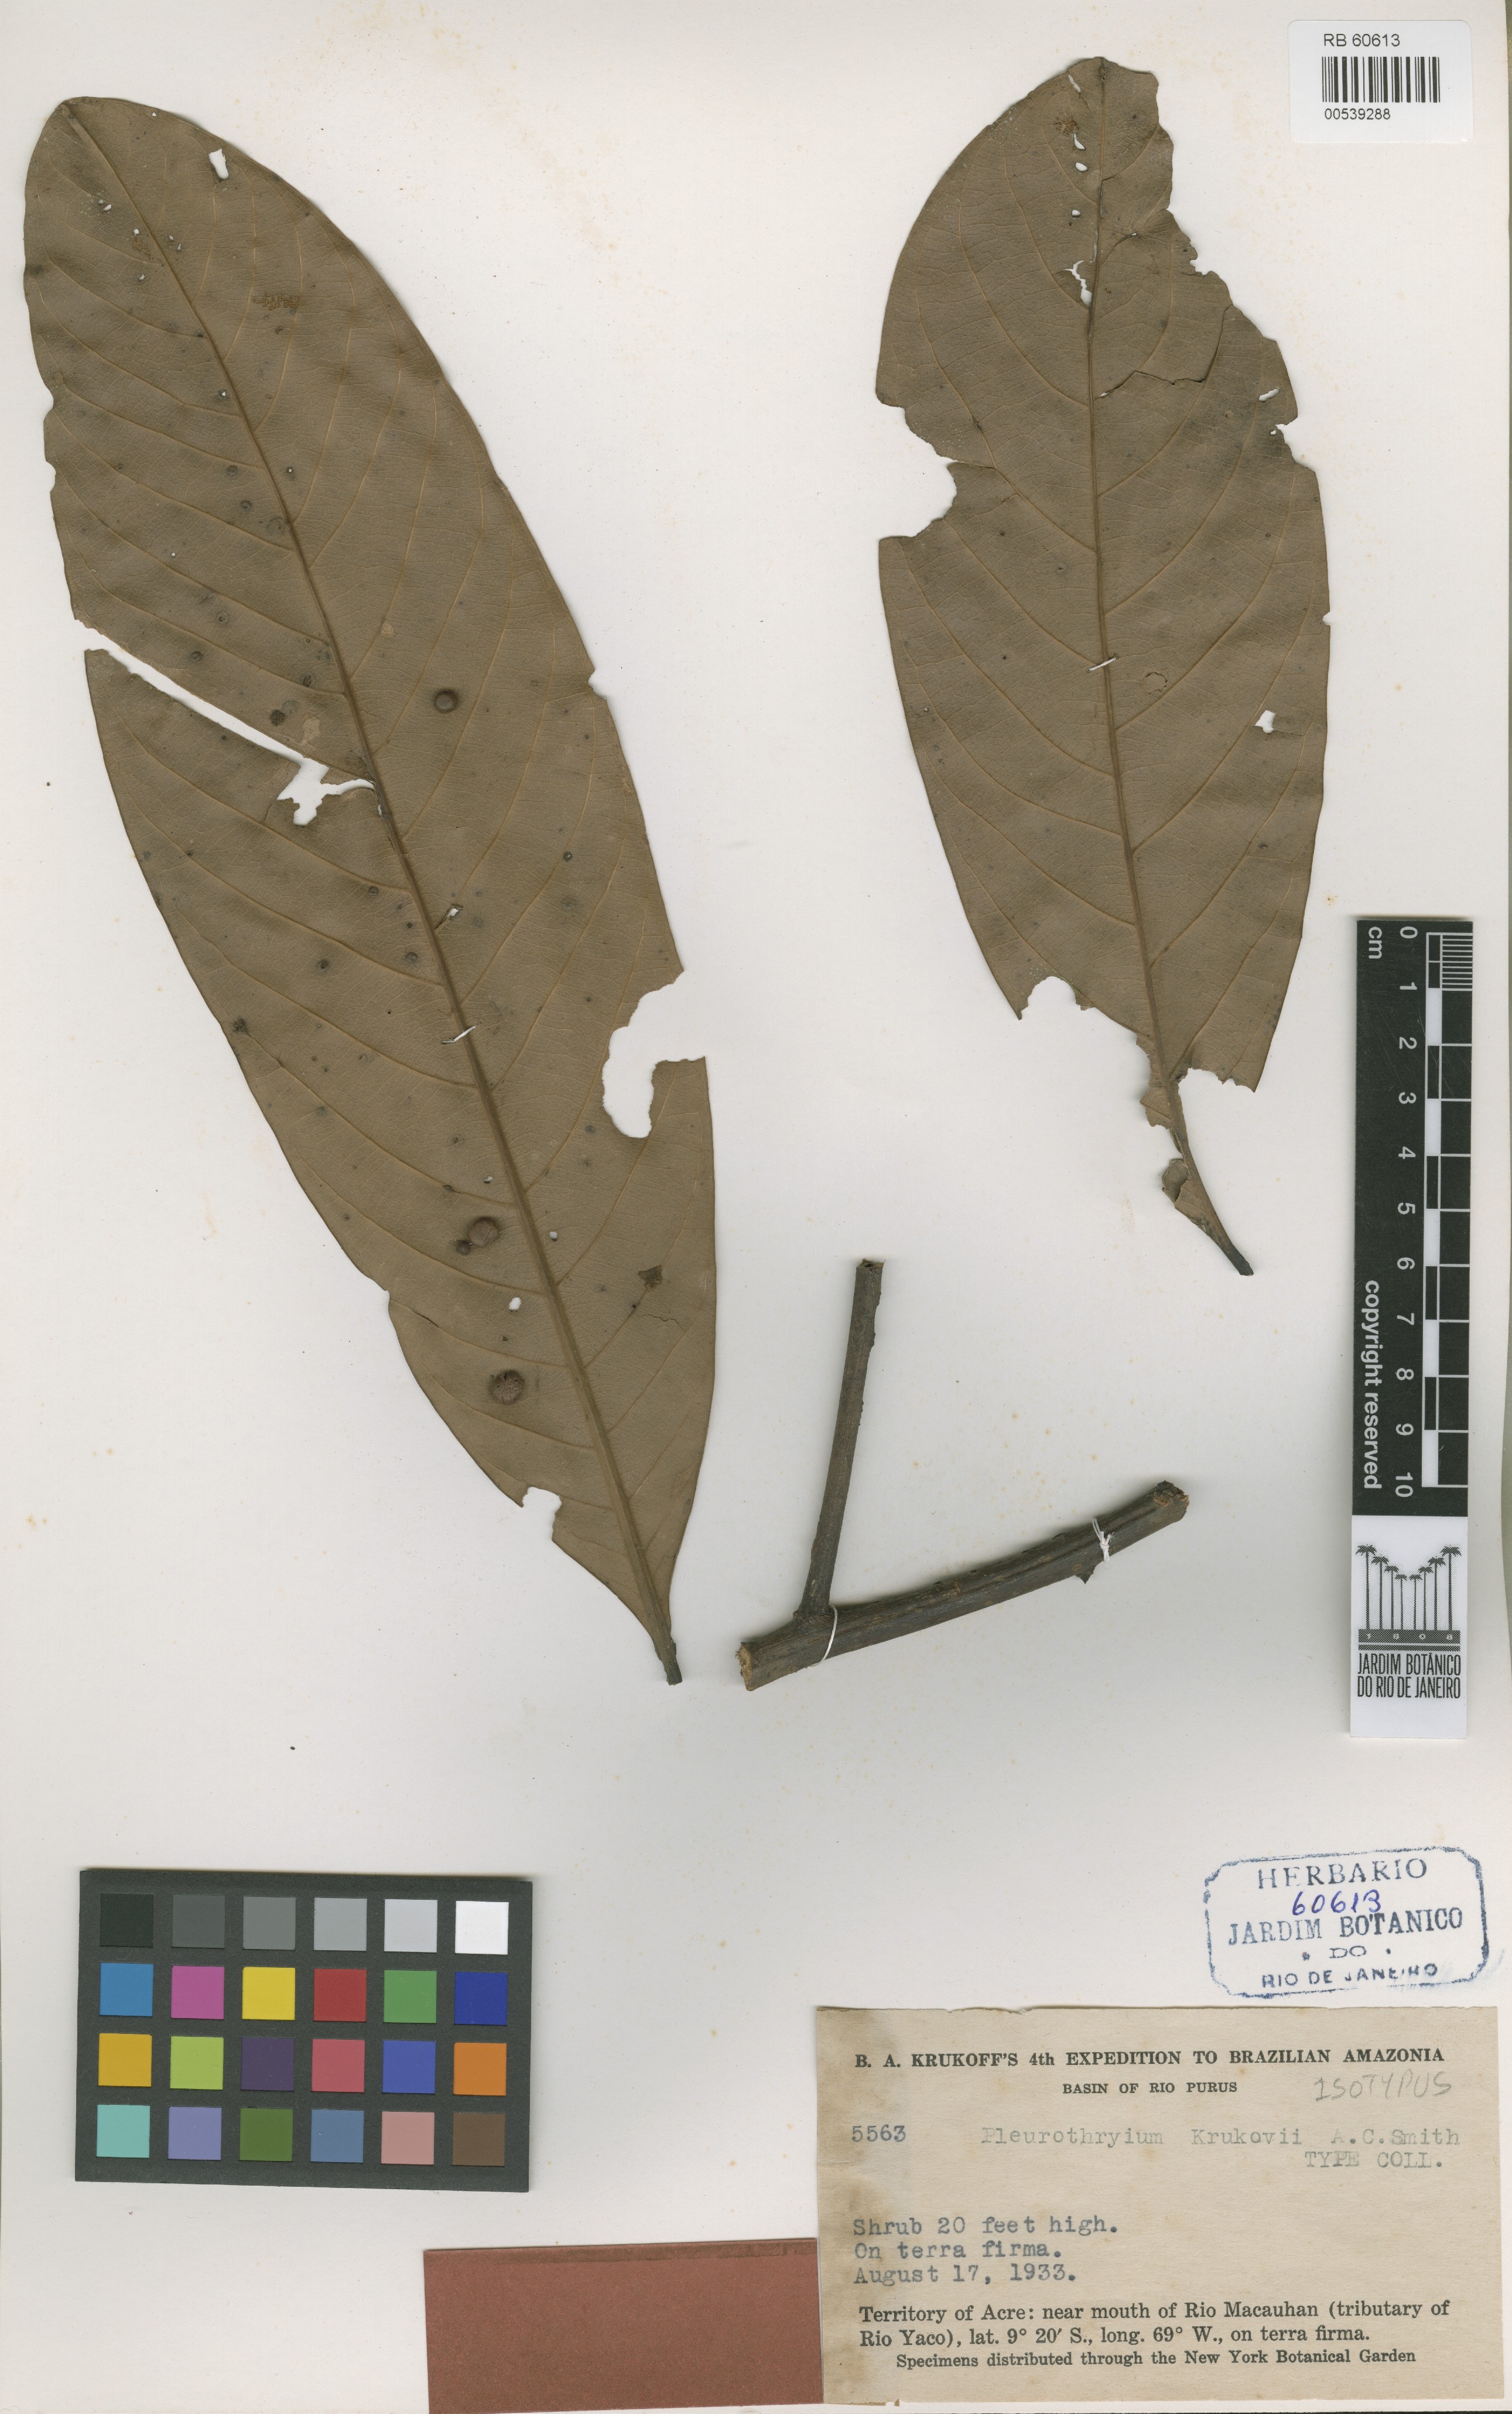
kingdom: Plantae
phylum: Tracheophyta
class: Magnoliopsida
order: Laurales
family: Lauraceae
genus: Pleurothyrium
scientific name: Pleurothyrium poeppigii
